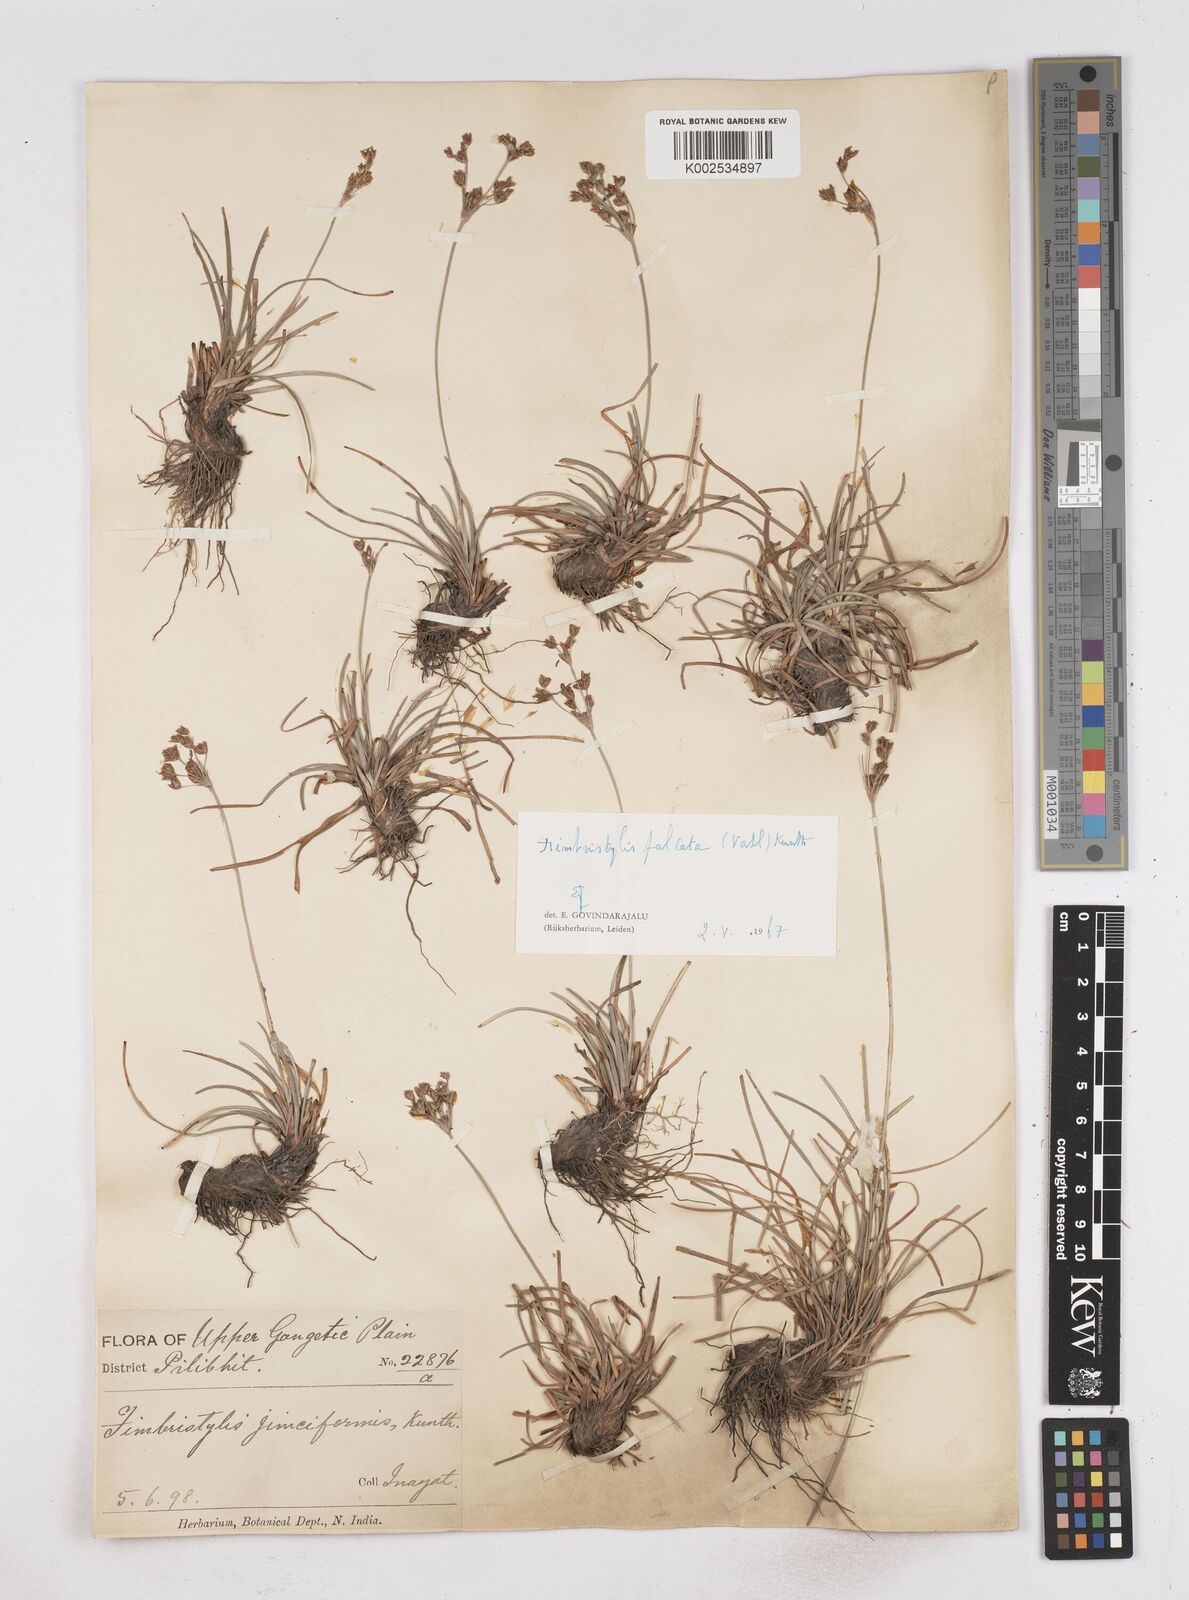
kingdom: Plantae
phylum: Tracheophyta
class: Liliopsida
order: Poales
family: Cyperaceae
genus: Fimbristylis
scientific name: Fimbristylis falcata
